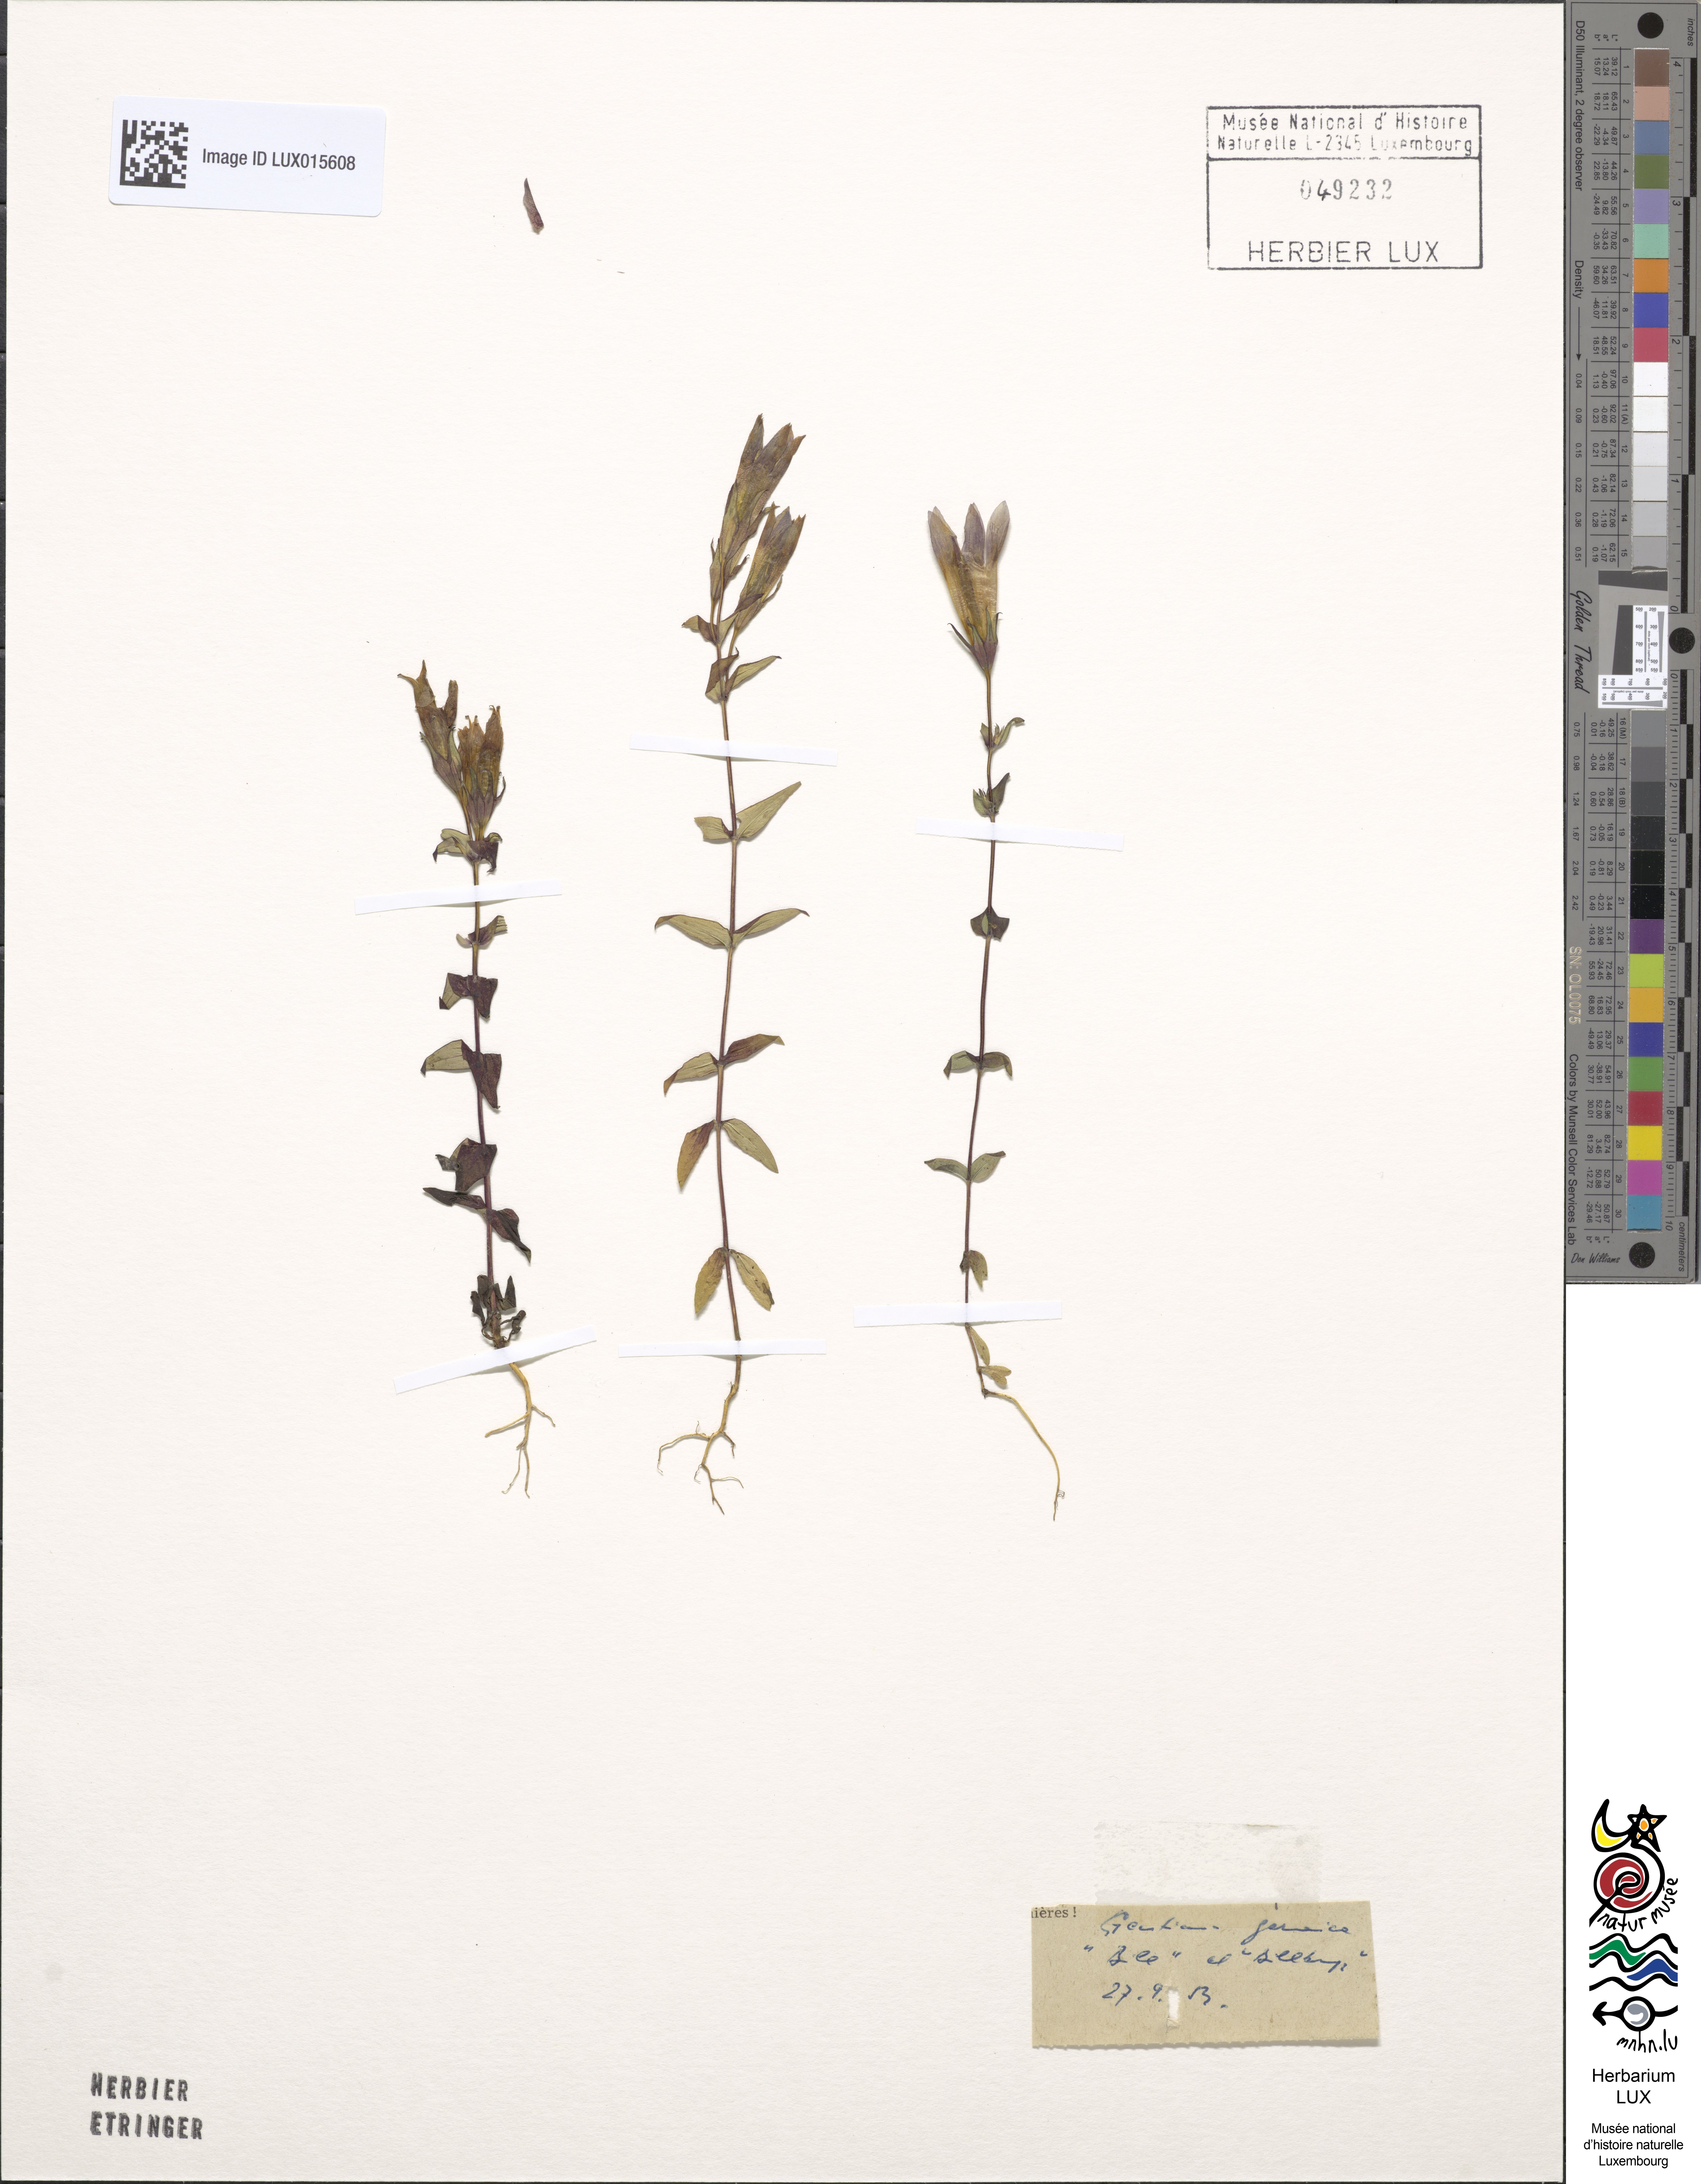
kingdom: Plantae
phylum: Tracheophyta
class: Magnoliopsida
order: Gentianales
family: Gentianaceae
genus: Gentianella
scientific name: Gentianella germanica
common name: Chiltern-gentian
